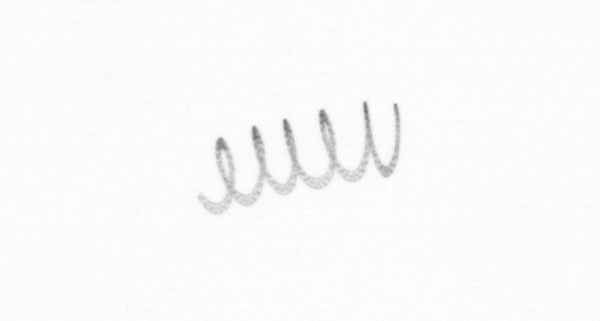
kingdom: Chromista
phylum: Ochrophyta
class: Bacillariophyceae
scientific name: Bacillariophyceae
